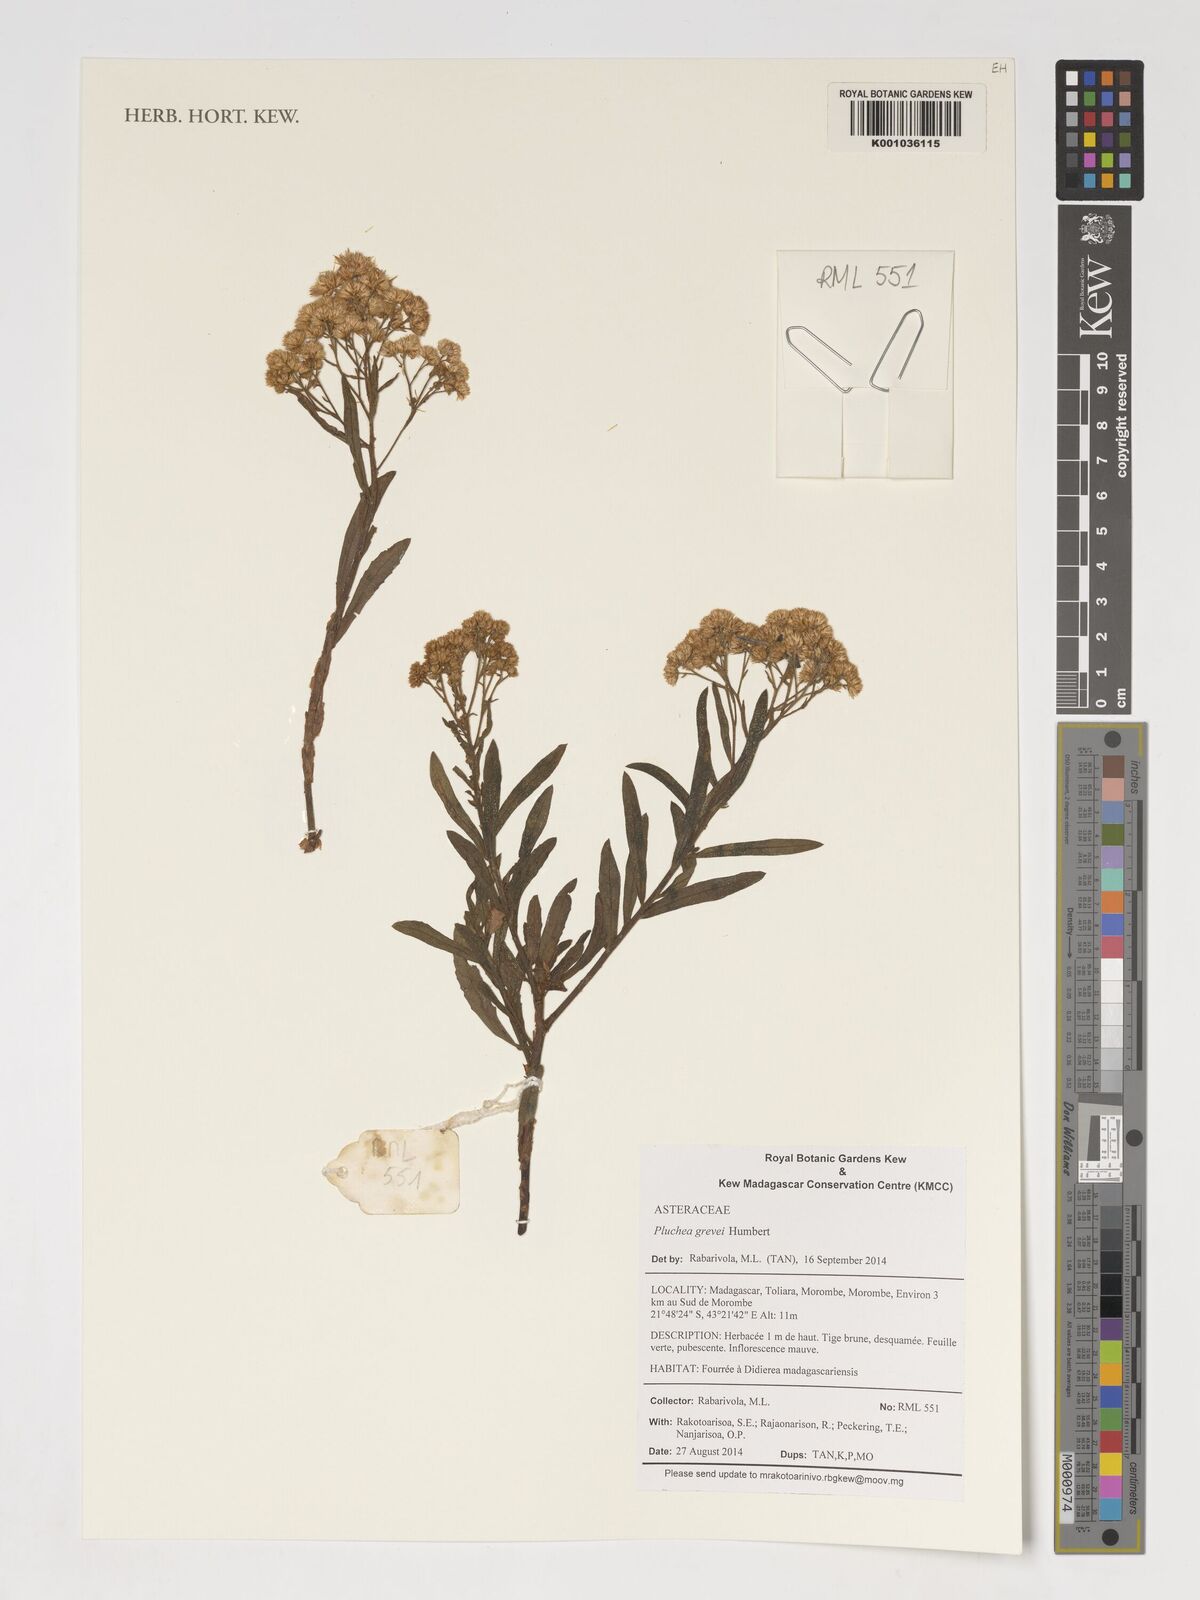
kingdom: Plantae
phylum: Tracheophyta
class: Magnoliopsida
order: Asterales
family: Asteraceae
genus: Pluchea
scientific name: Pluchea grevei
